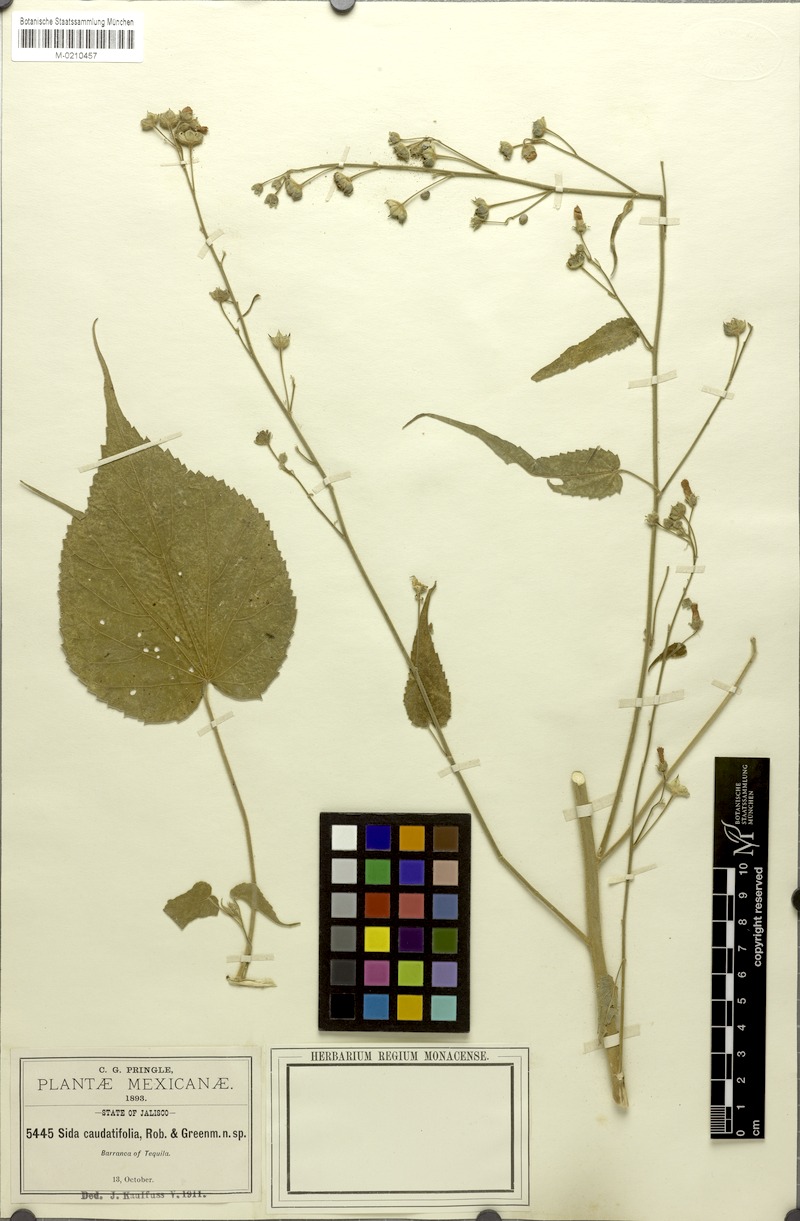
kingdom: Plantae
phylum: Tracheophyta
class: Magnoliopsida
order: Malvales
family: Malvaceae
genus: Anoda
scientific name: Anoda abutiloides
